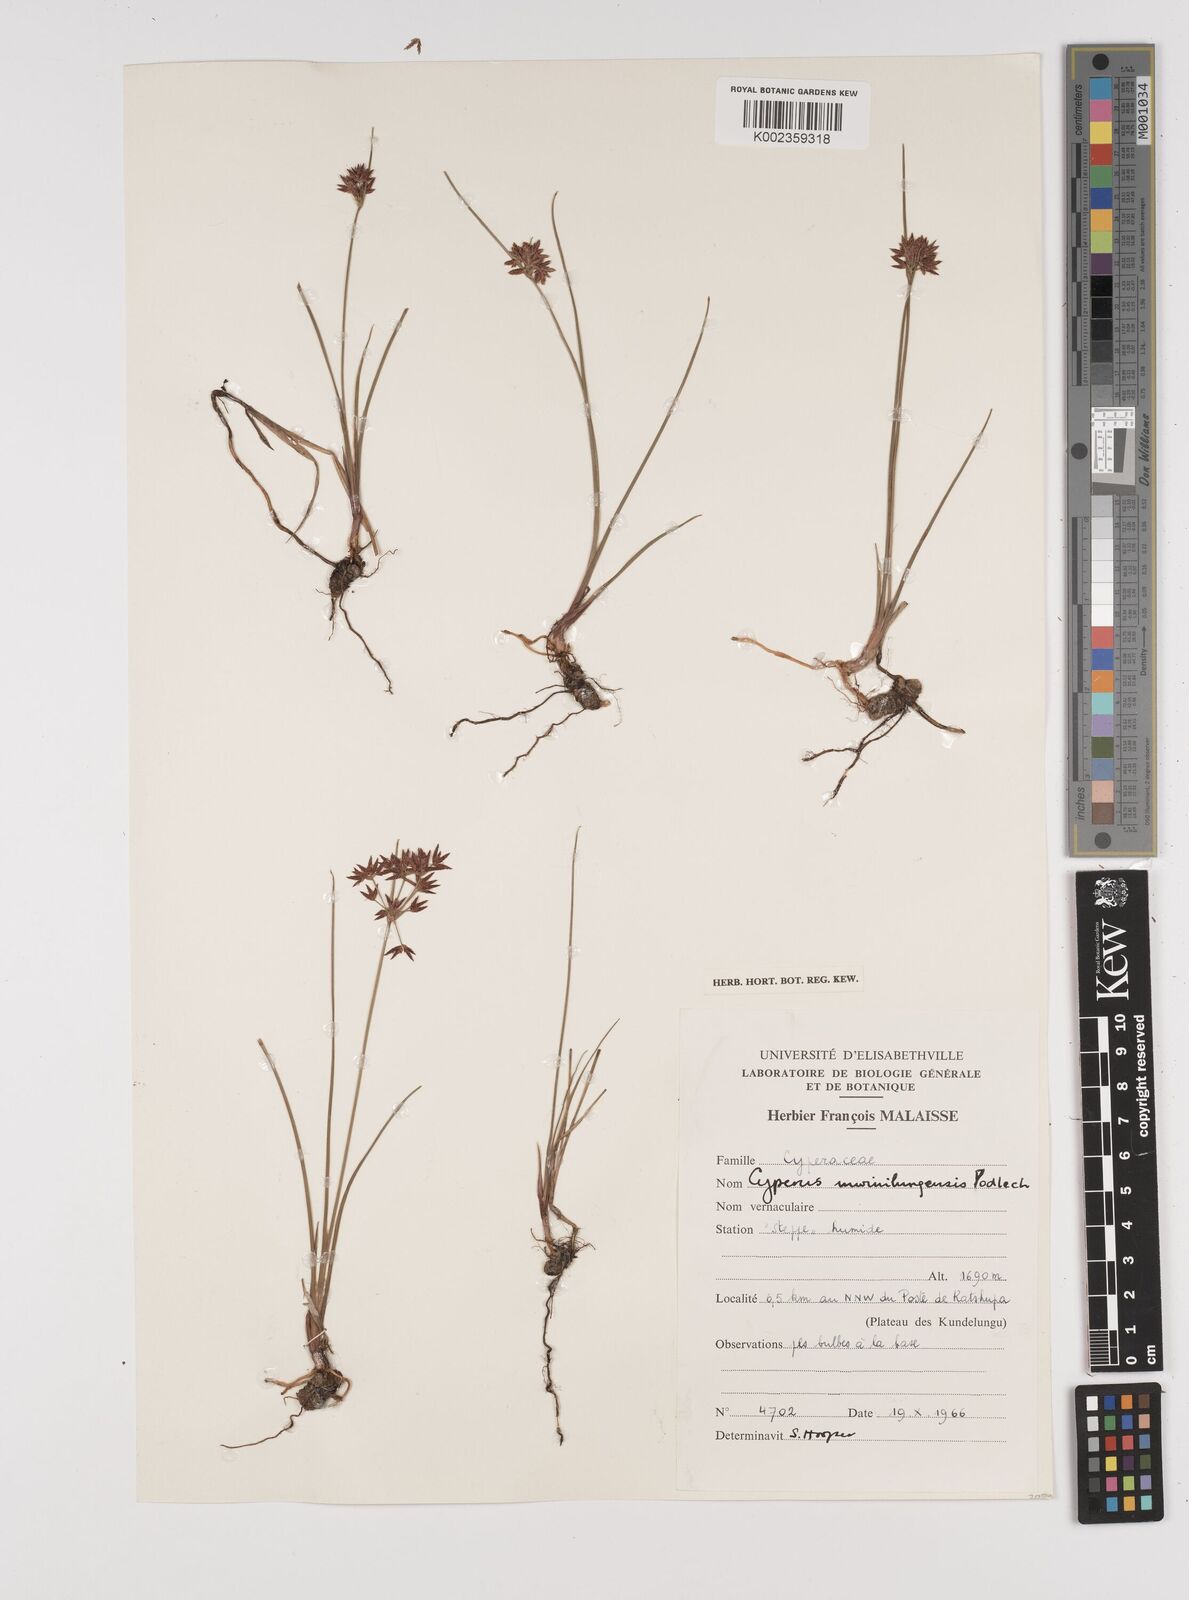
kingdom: Plantae
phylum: Tracheophyta
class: Liliopsida
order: Poales
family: Cyperaceae
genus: Cyperus
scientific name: Cyperus mwinilungensis
